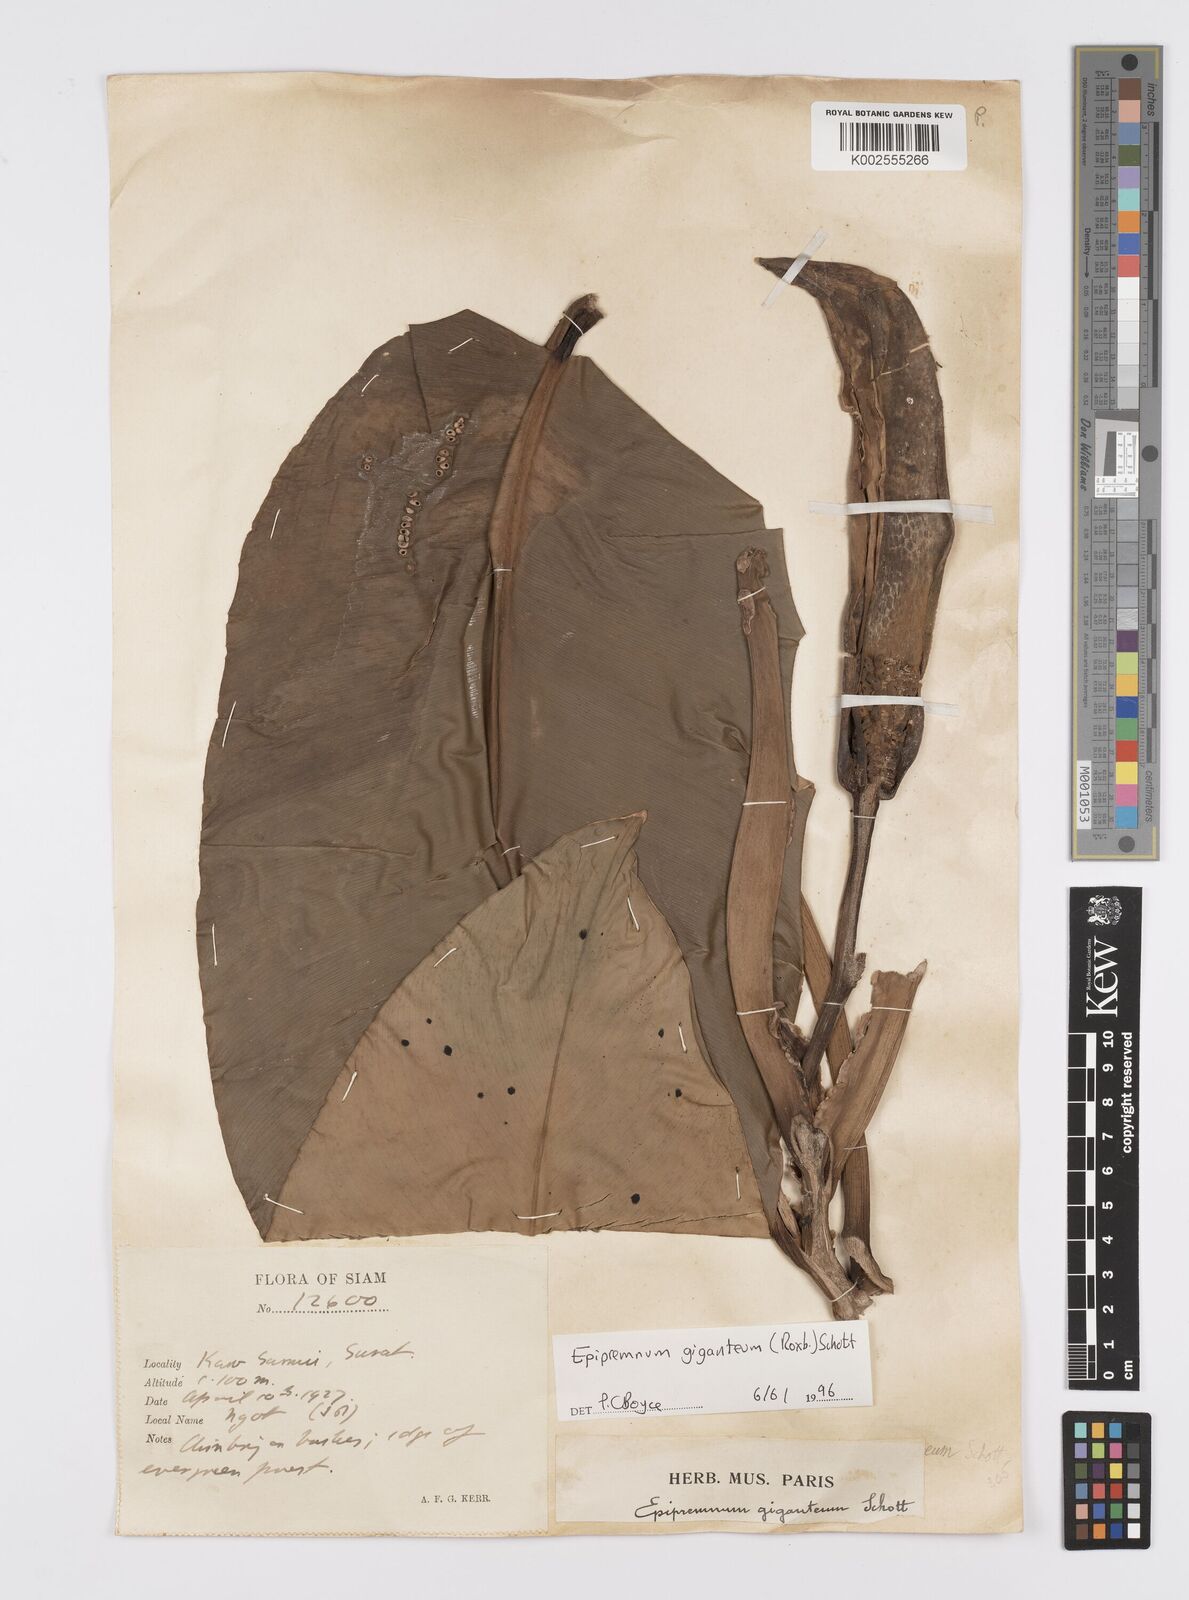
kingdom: Plantae
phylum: Tracheophyta
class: Liliopsida
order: Alismatales
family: Araceae
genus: Epipremnum
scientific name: Epipremnum giganteum
